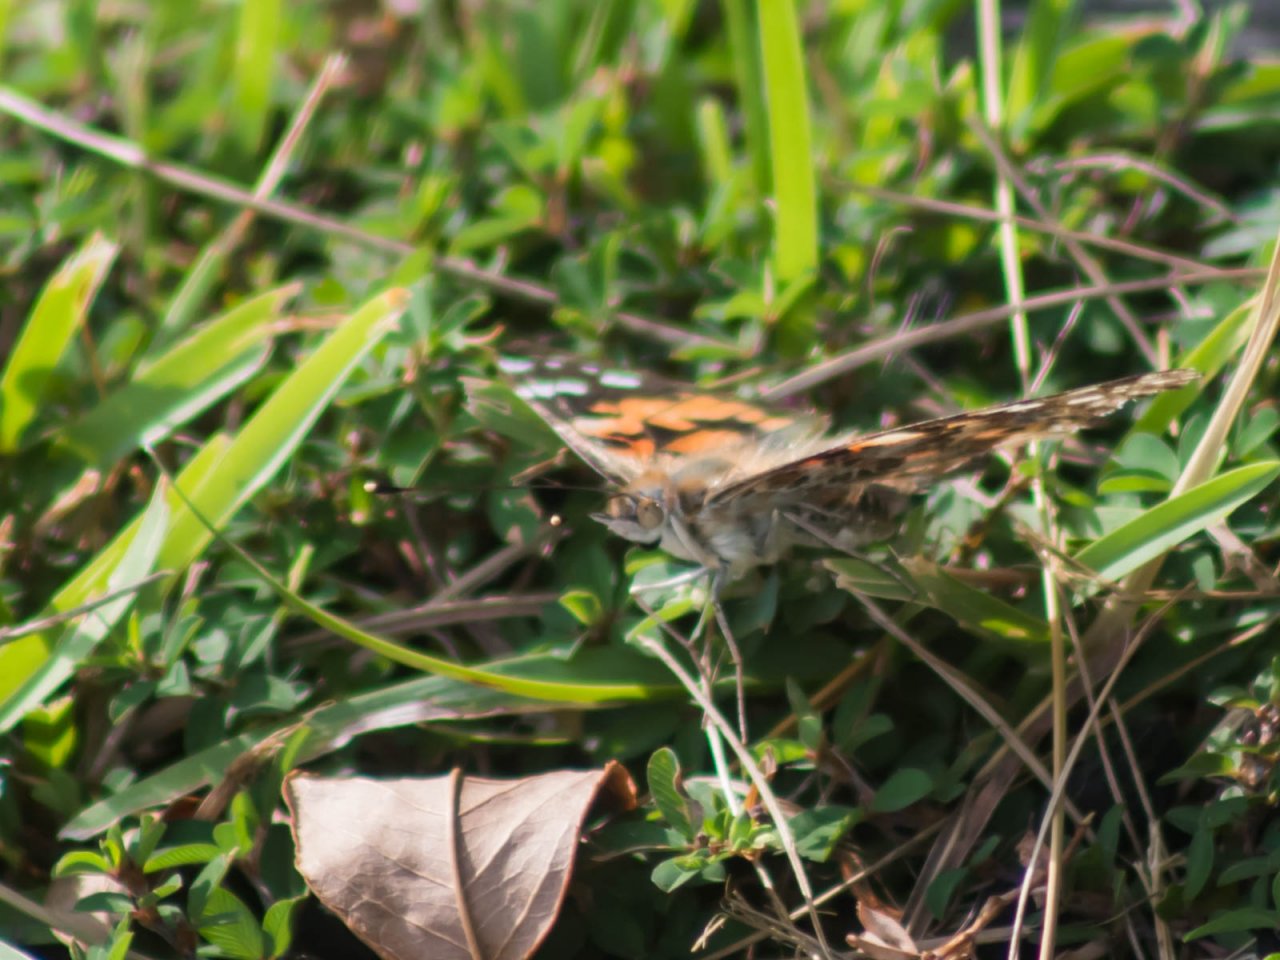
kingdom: Animalia
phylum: Arthropoda
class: Insecta
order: Lepidoptera
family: Nymphalidae
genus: Vanessa
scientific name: Vanessa cardui
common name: Painted Lady
